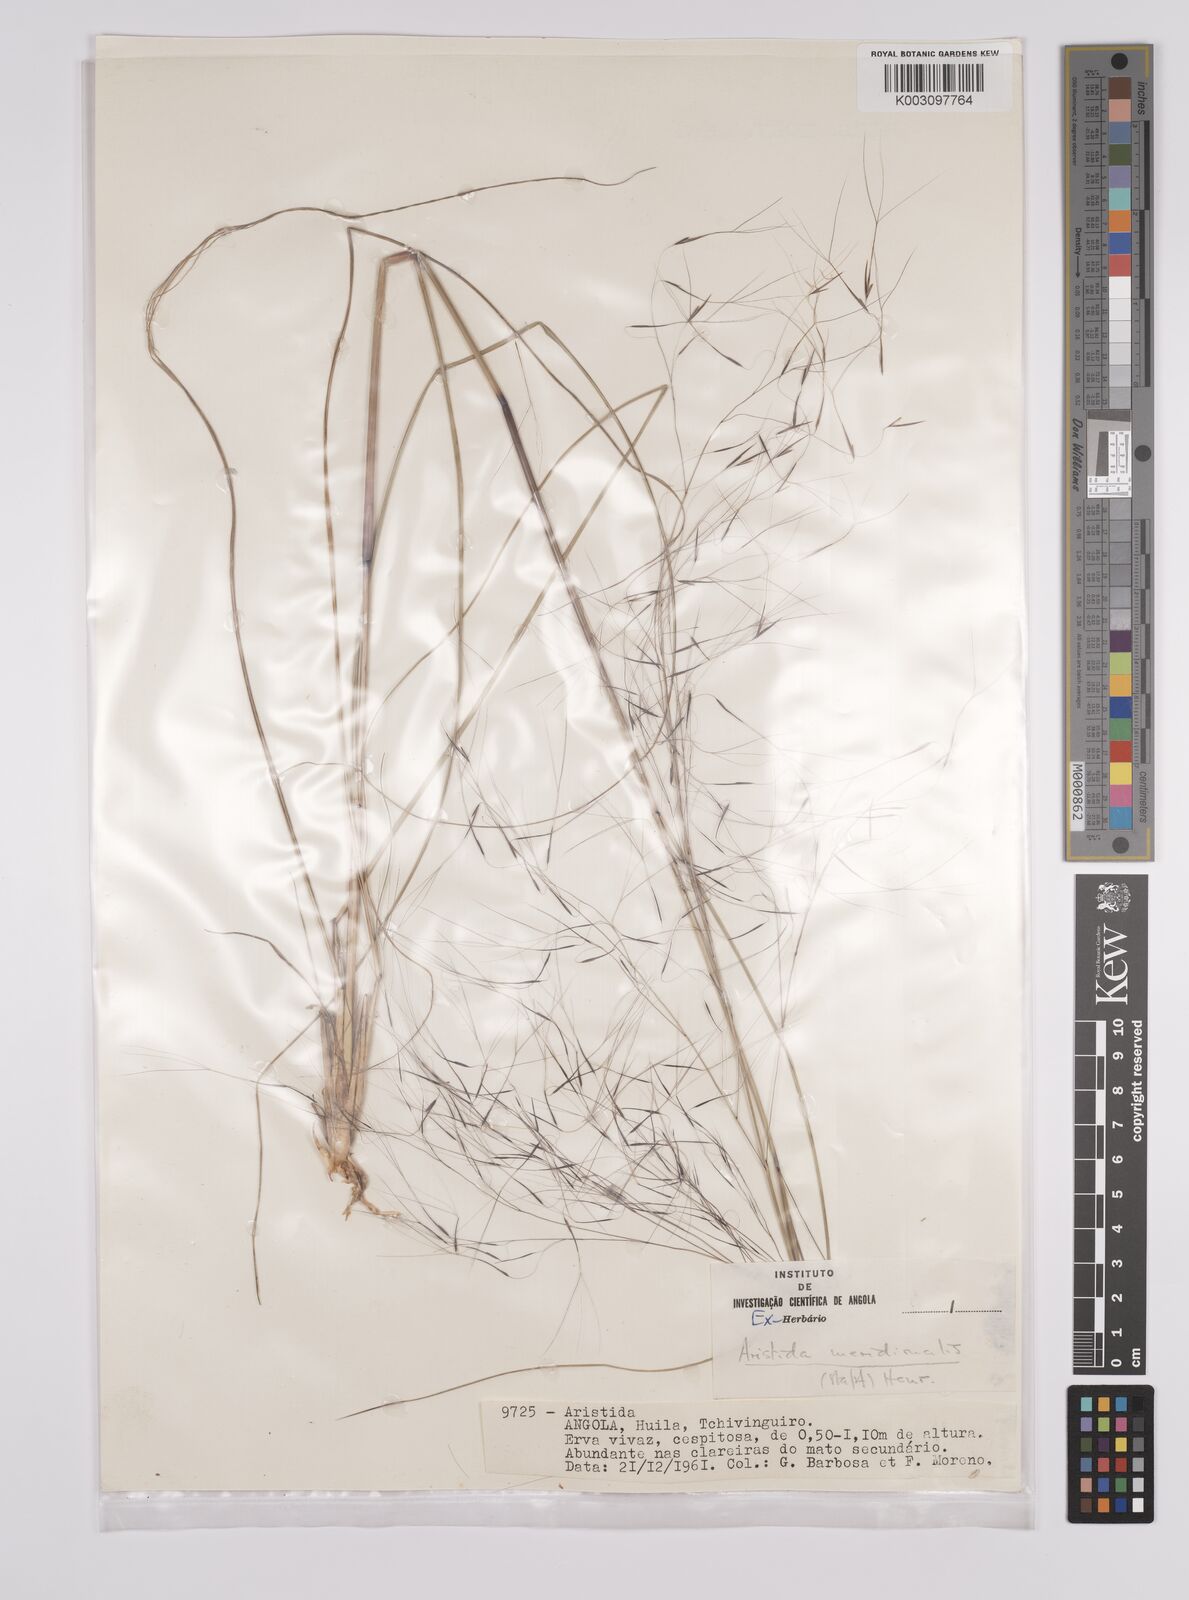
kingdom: Plantae
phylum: Tracheophyta
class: Liliopsida
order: Poales
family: Poaceae
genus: Aristida
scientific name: Aristida meridionalis
